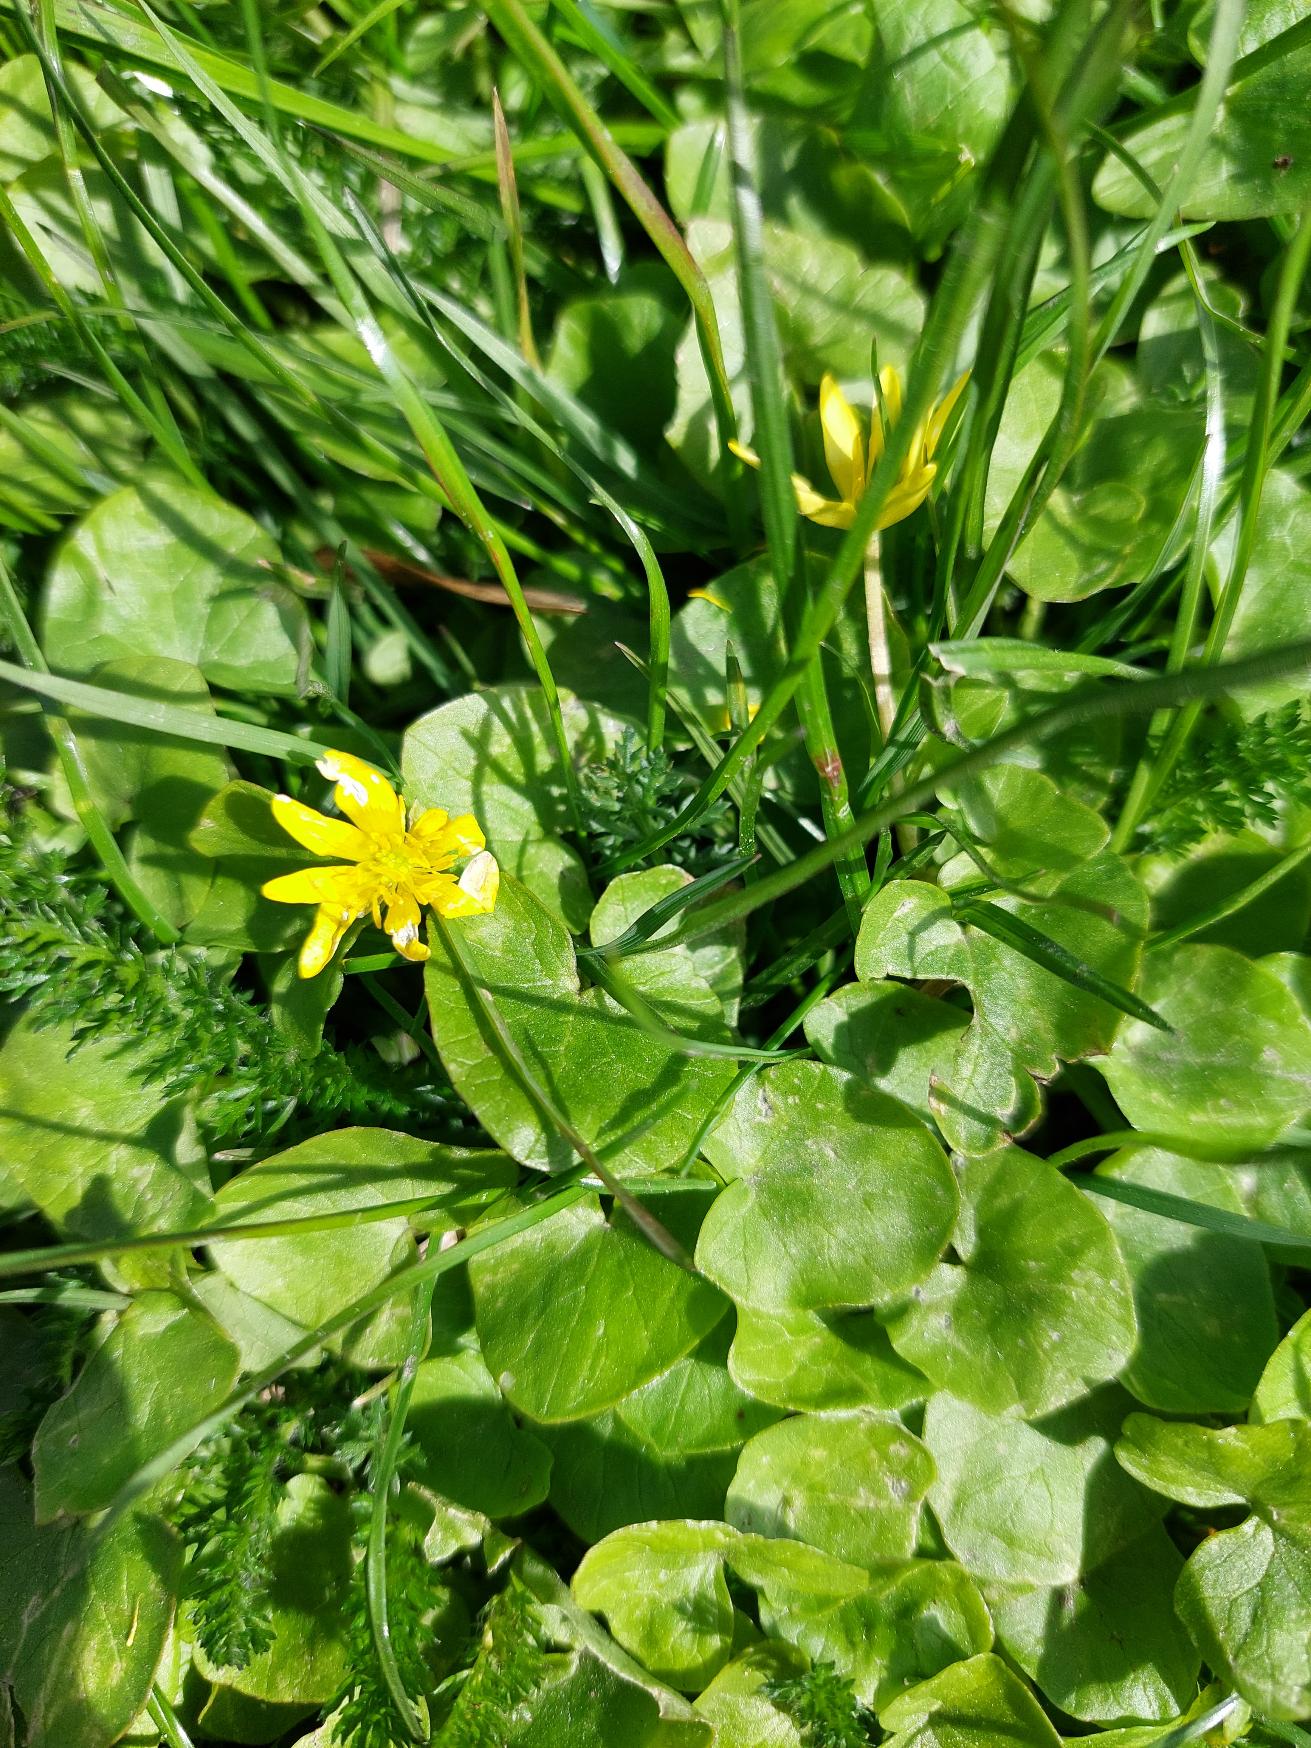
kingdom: Plantae
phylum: Tracheophyta
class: Magnoliopsida
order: Ranunculales
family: Ranunculaceae
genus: Ficaria
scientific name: Ficaria verna
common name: Vorterod
